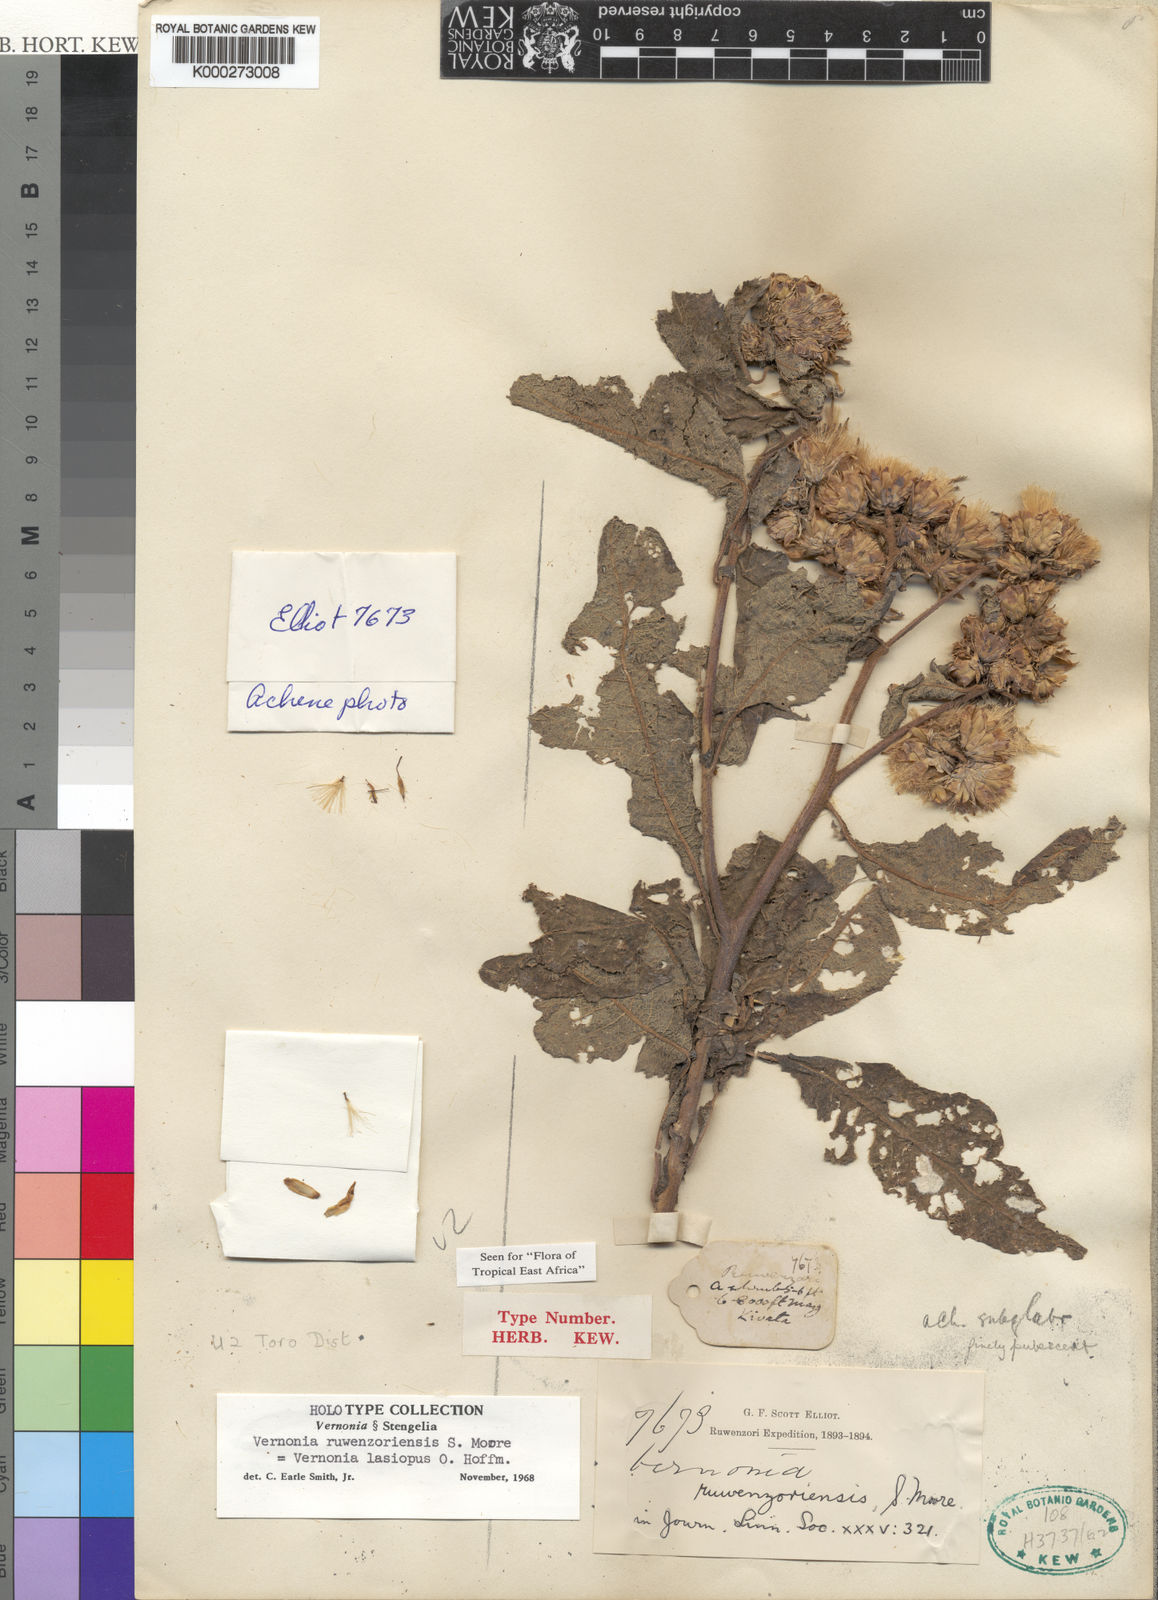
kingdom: Plantae
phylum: Tracheophyta
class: Magnoliopsida
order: Asterales
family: Asteraceae
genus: Vernonia
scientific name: Vernonia ruwenzoriensis
